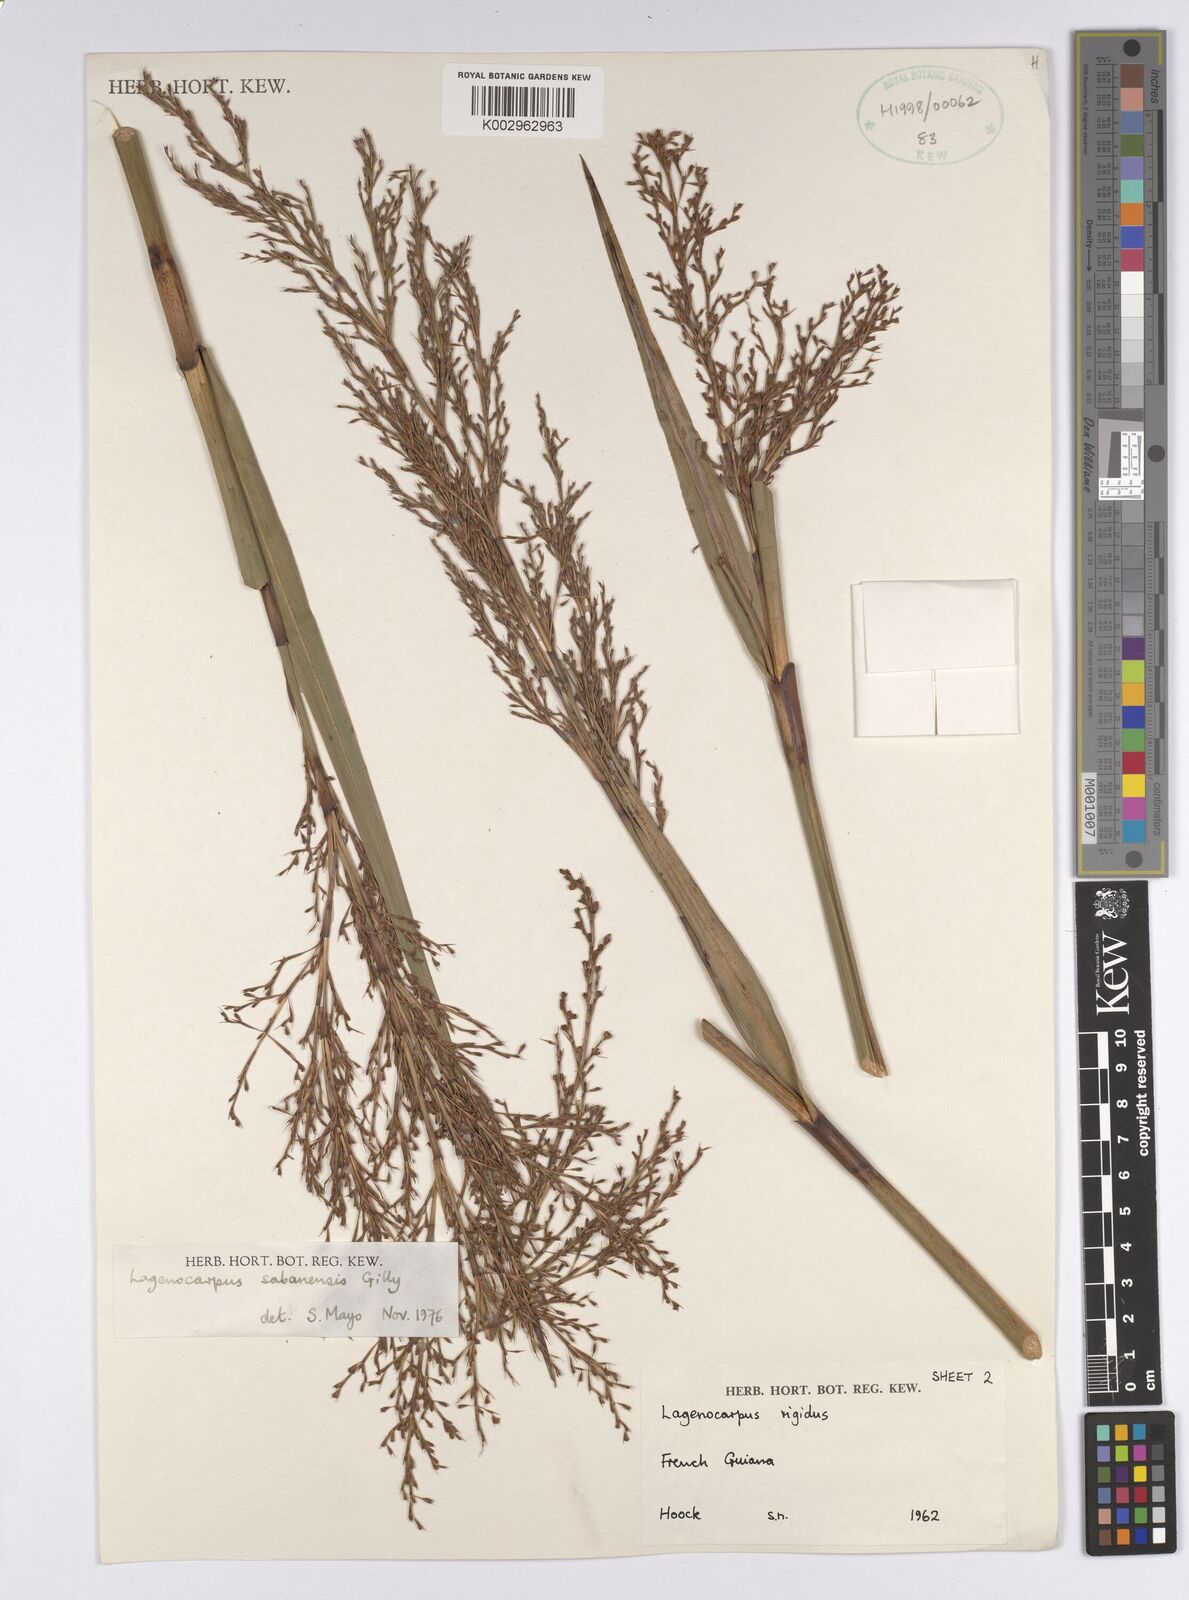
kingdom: Plantae
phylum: Tracheophyta
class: Liliopsida
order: Poales
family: Cyperaceae
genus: Lagenocarpus
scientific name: Lagenocarpus sabanensis
